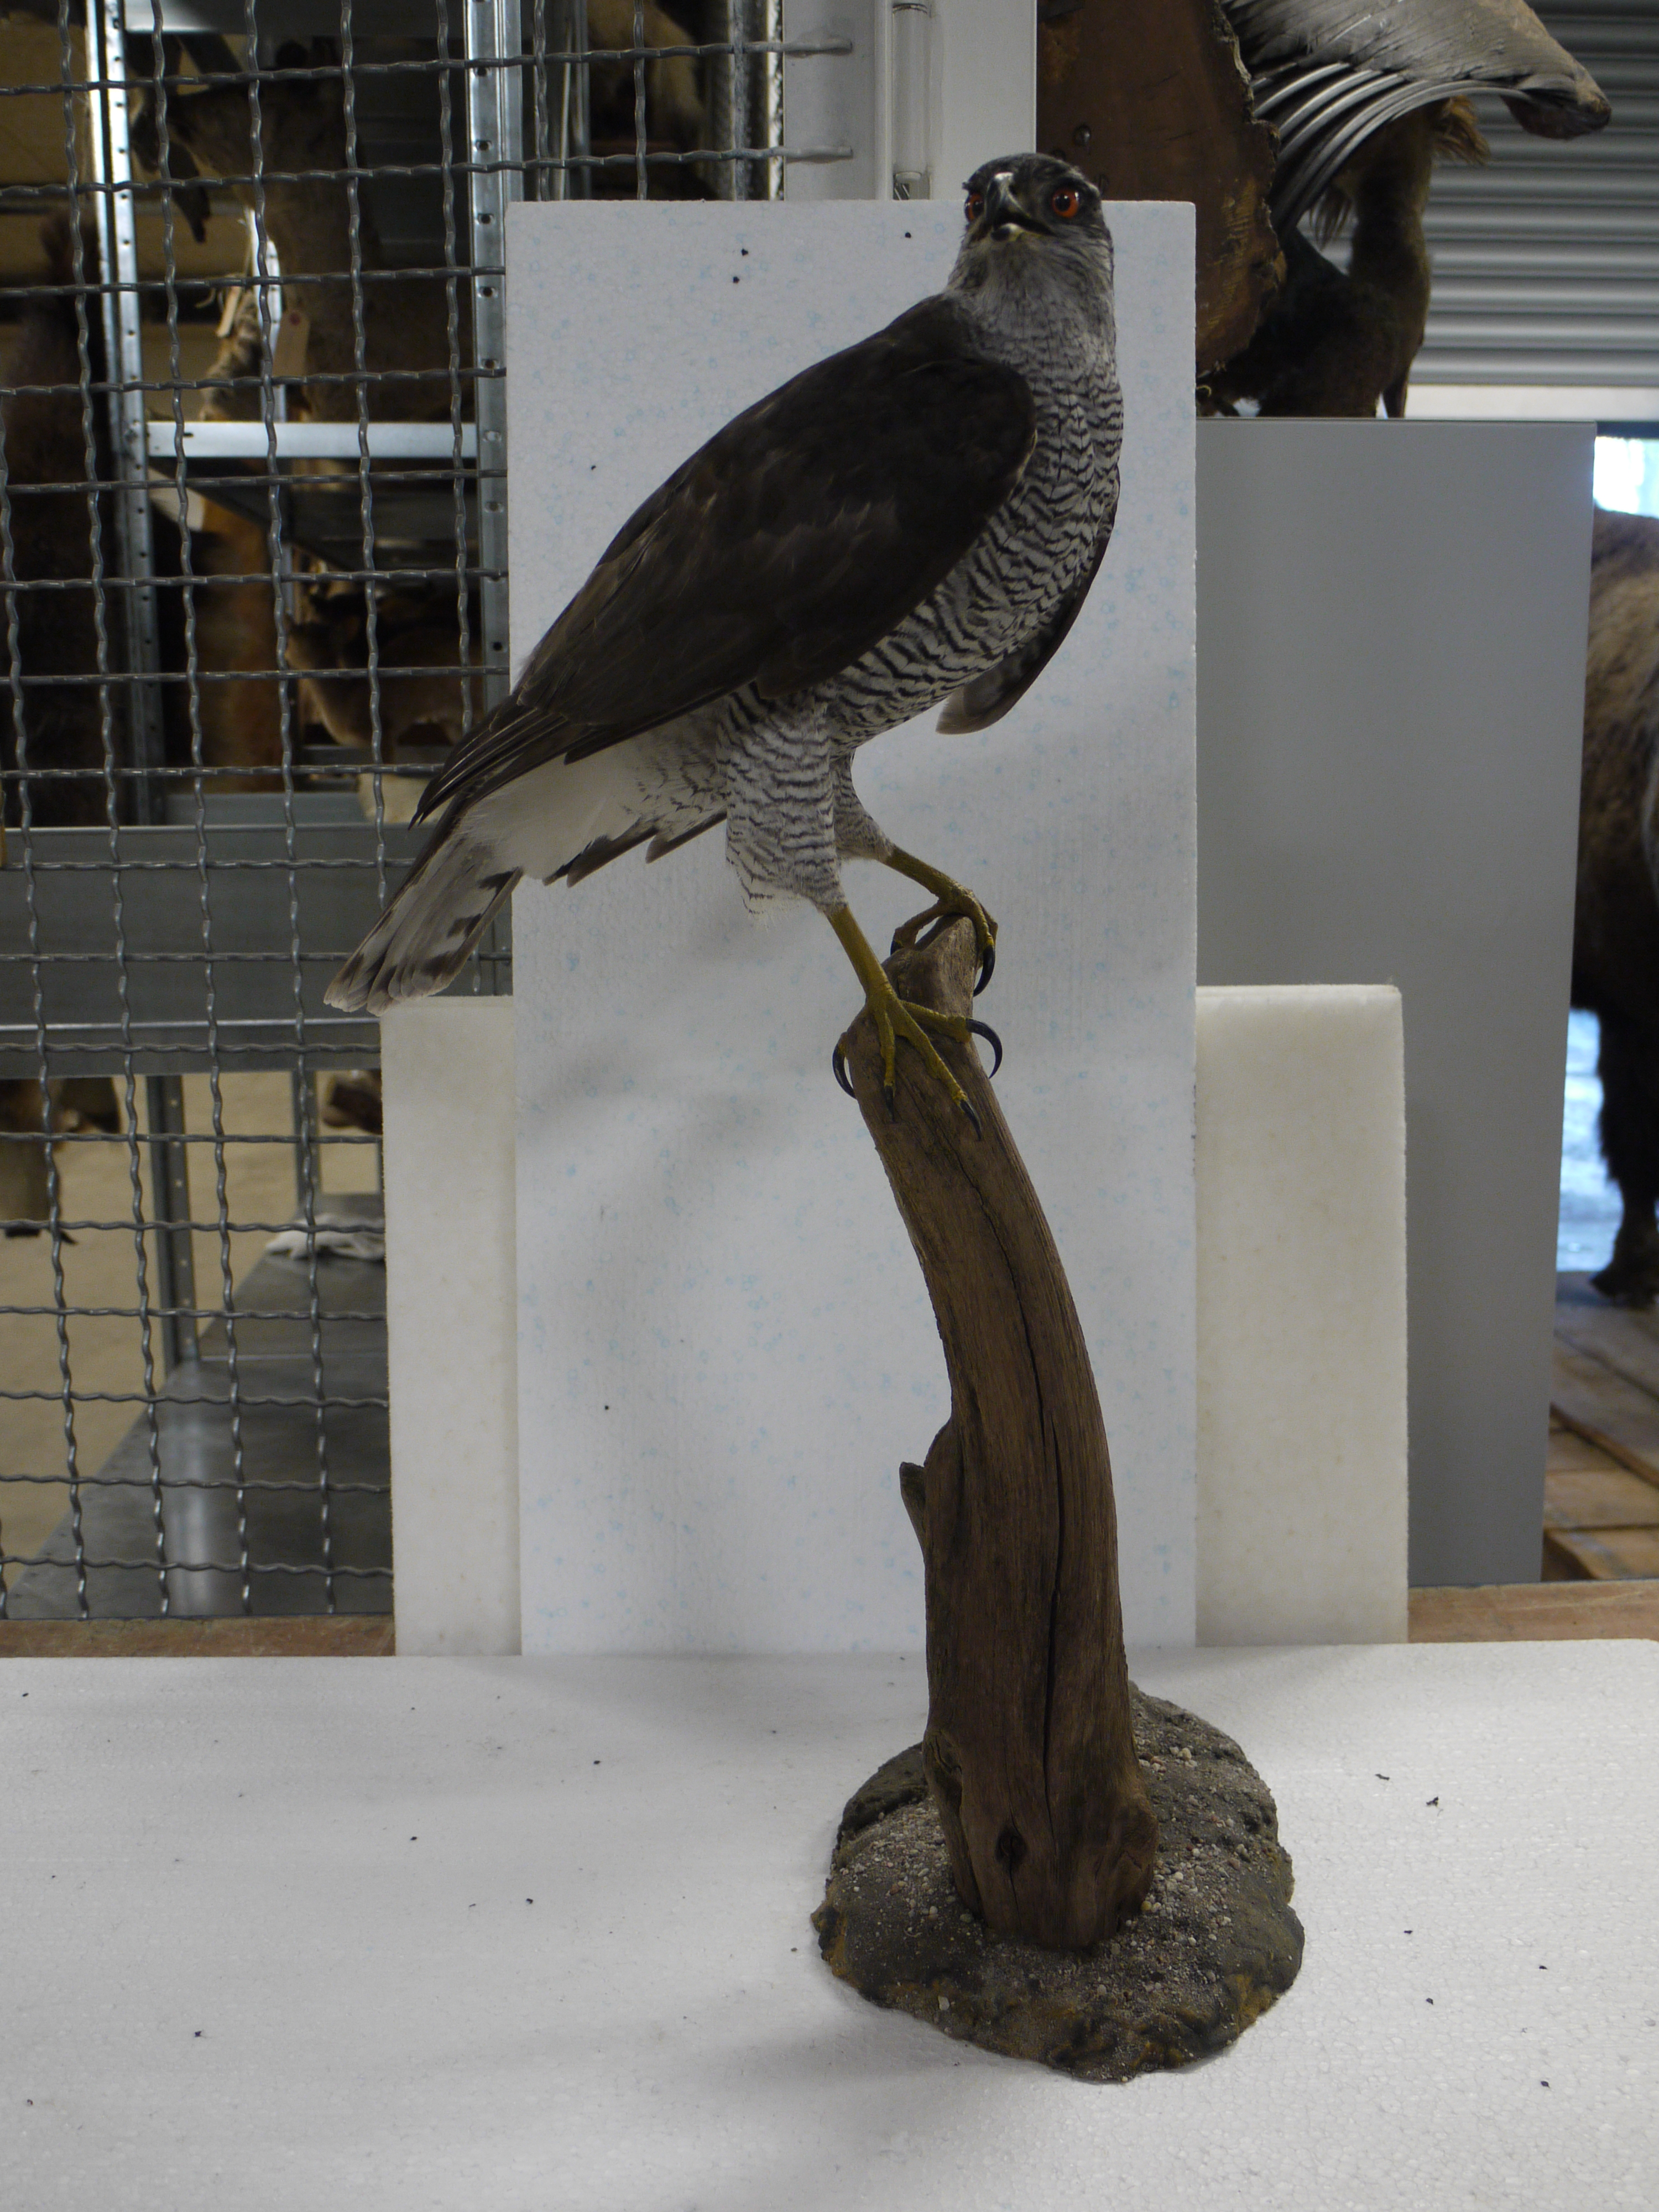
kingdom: Animalia
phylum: Chordata
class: Aves
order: Accipitriformes
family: Accipitridae
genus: Accipiter
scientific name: Accipiter gentilis
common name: Northern goshawk
